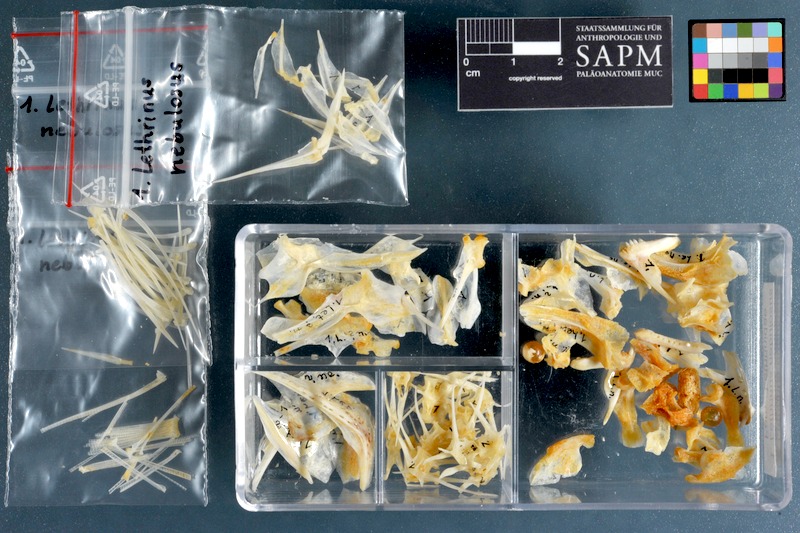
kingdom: Animalia
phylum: Chordata
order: Perciformes
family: Lethrinidae
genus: Lethrinus
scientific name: Lethrinus nebulosus
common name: Spangled emperor
